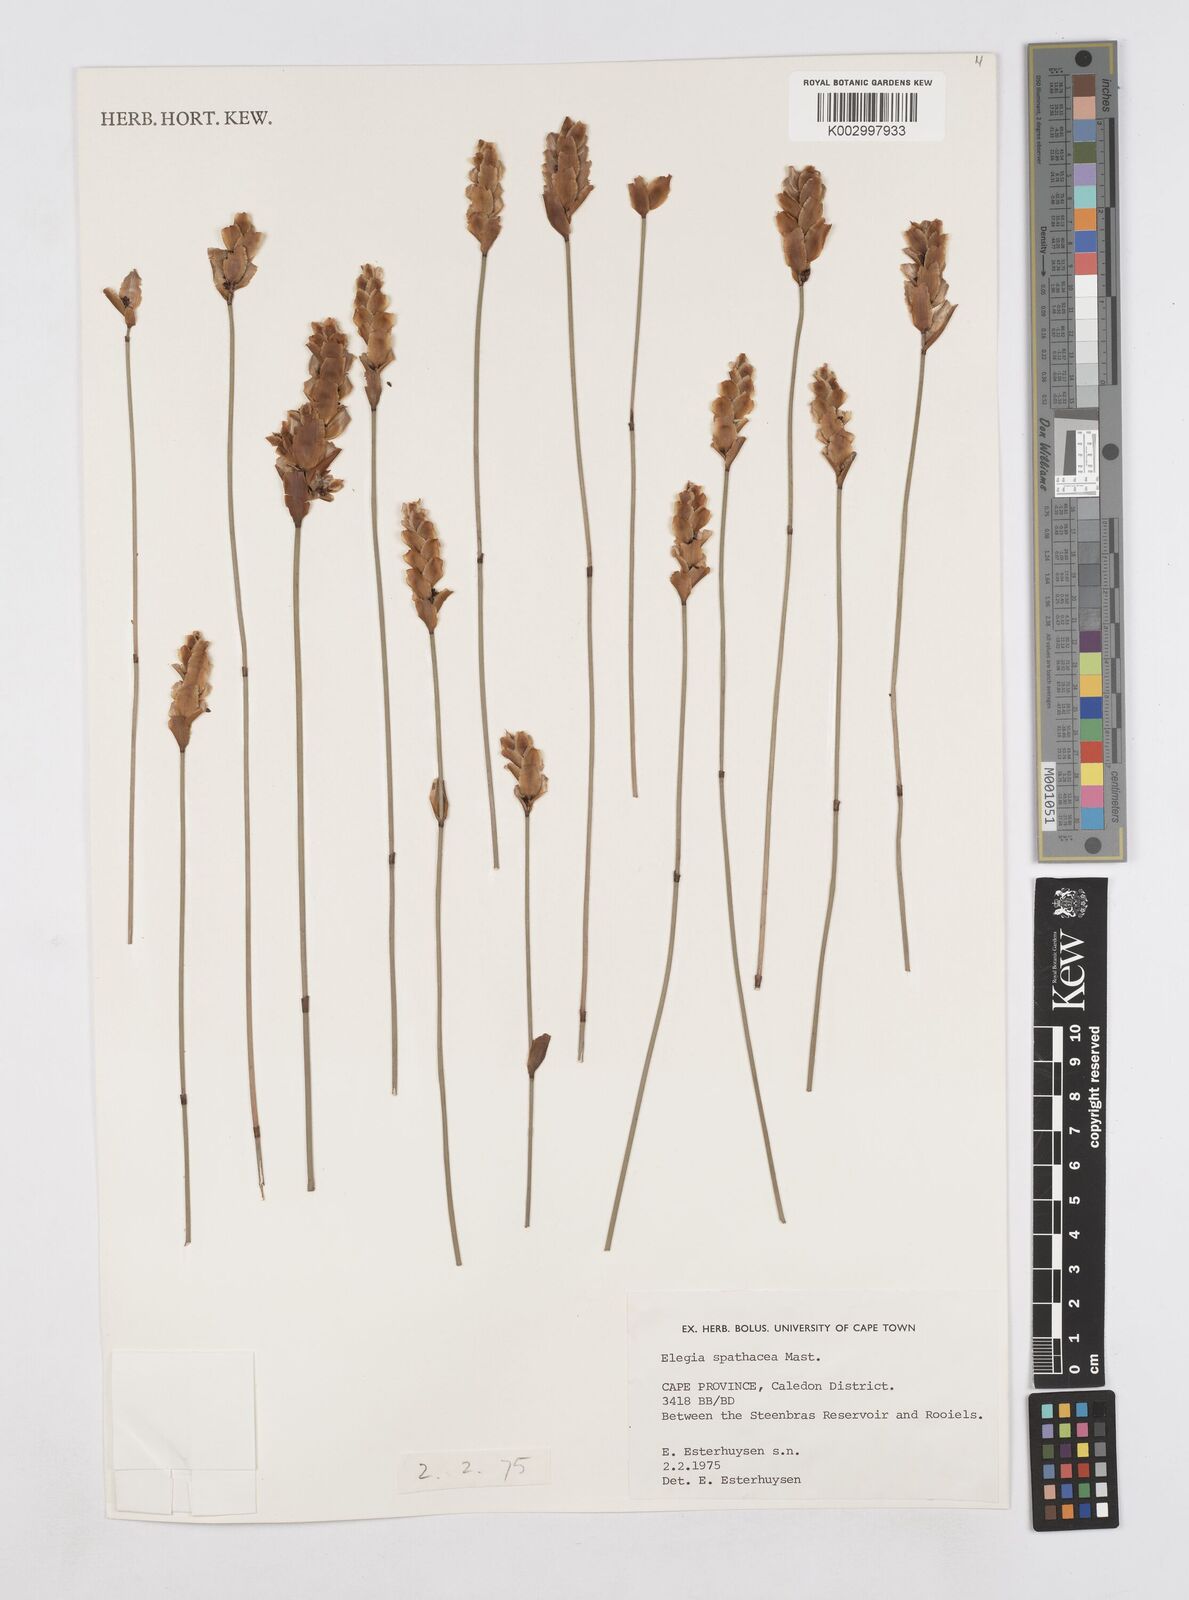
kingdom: Plantae
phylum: Tracheophyta
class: Liliopsida
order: Poales
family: Restionaceae
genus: Elegia
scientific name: Elegia spathacea
